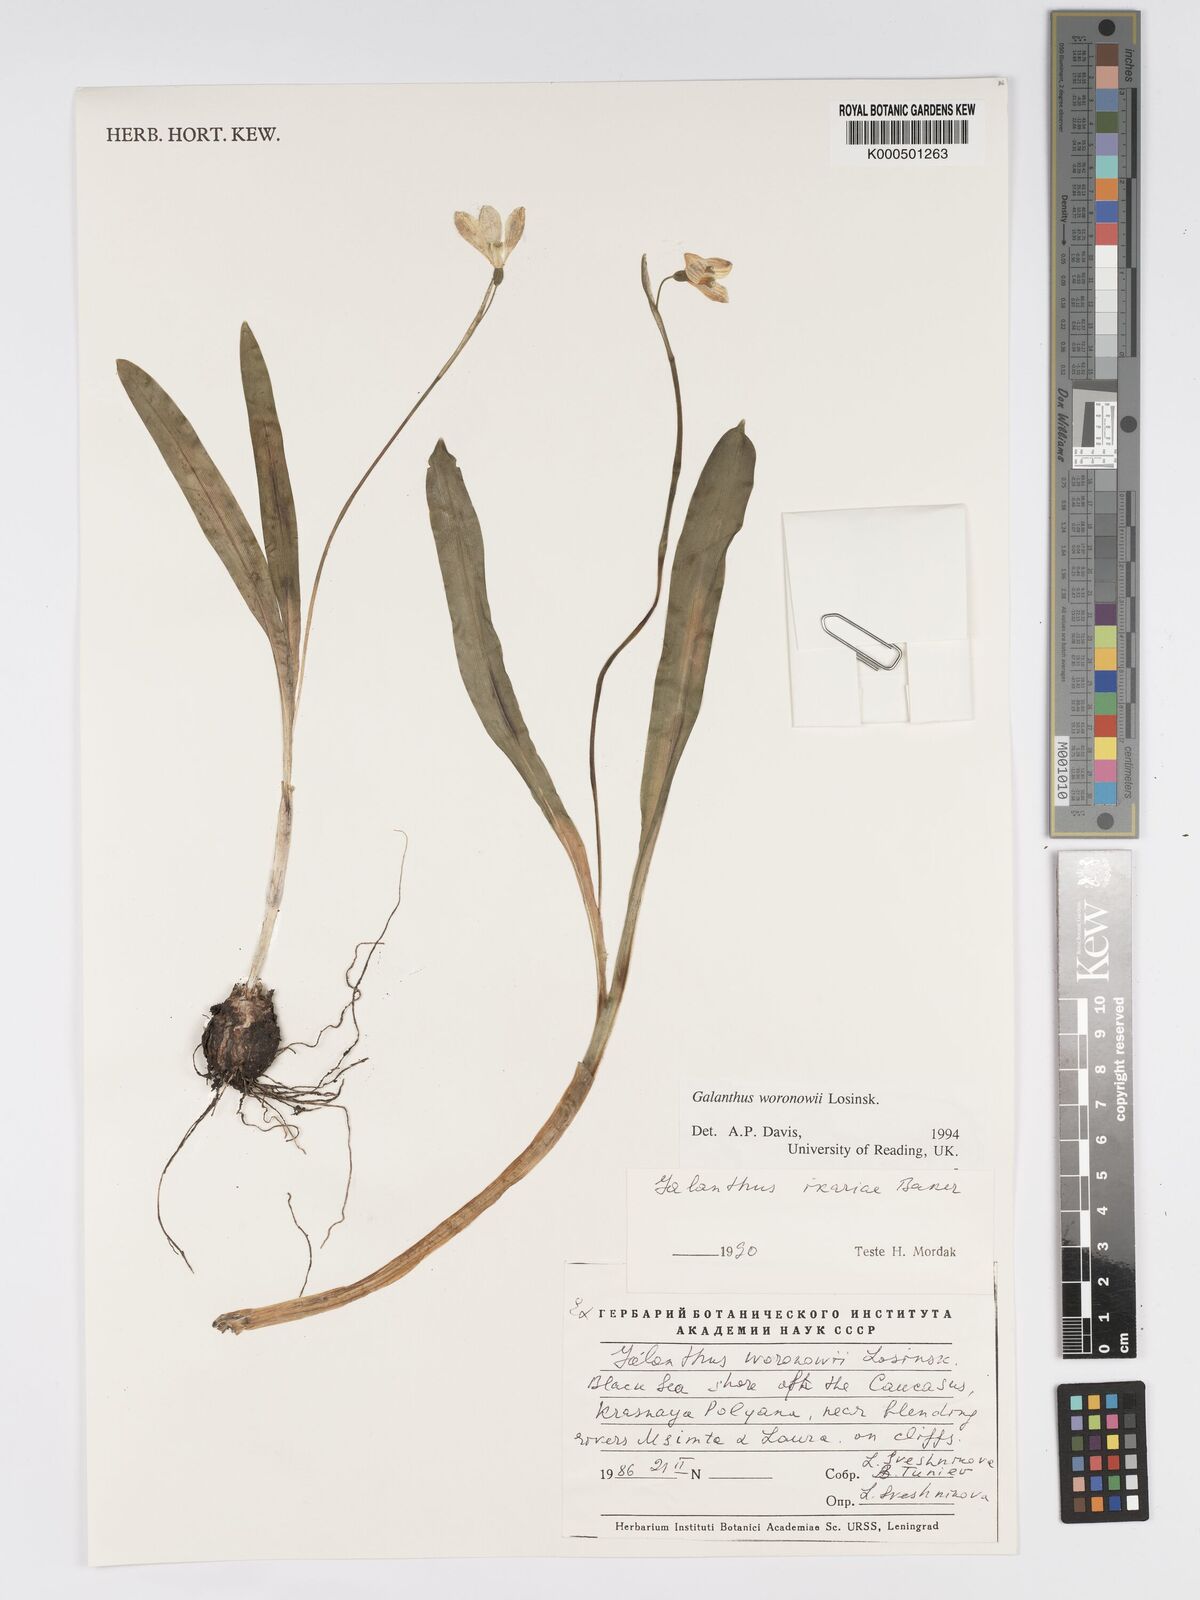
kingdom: Plantae
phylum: Tracheophyta
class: Liliopsida
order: Asparagales
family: Amaryllidaceae
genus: Galanthus
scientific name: Galanthus woronowii
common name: Green snowdrop
